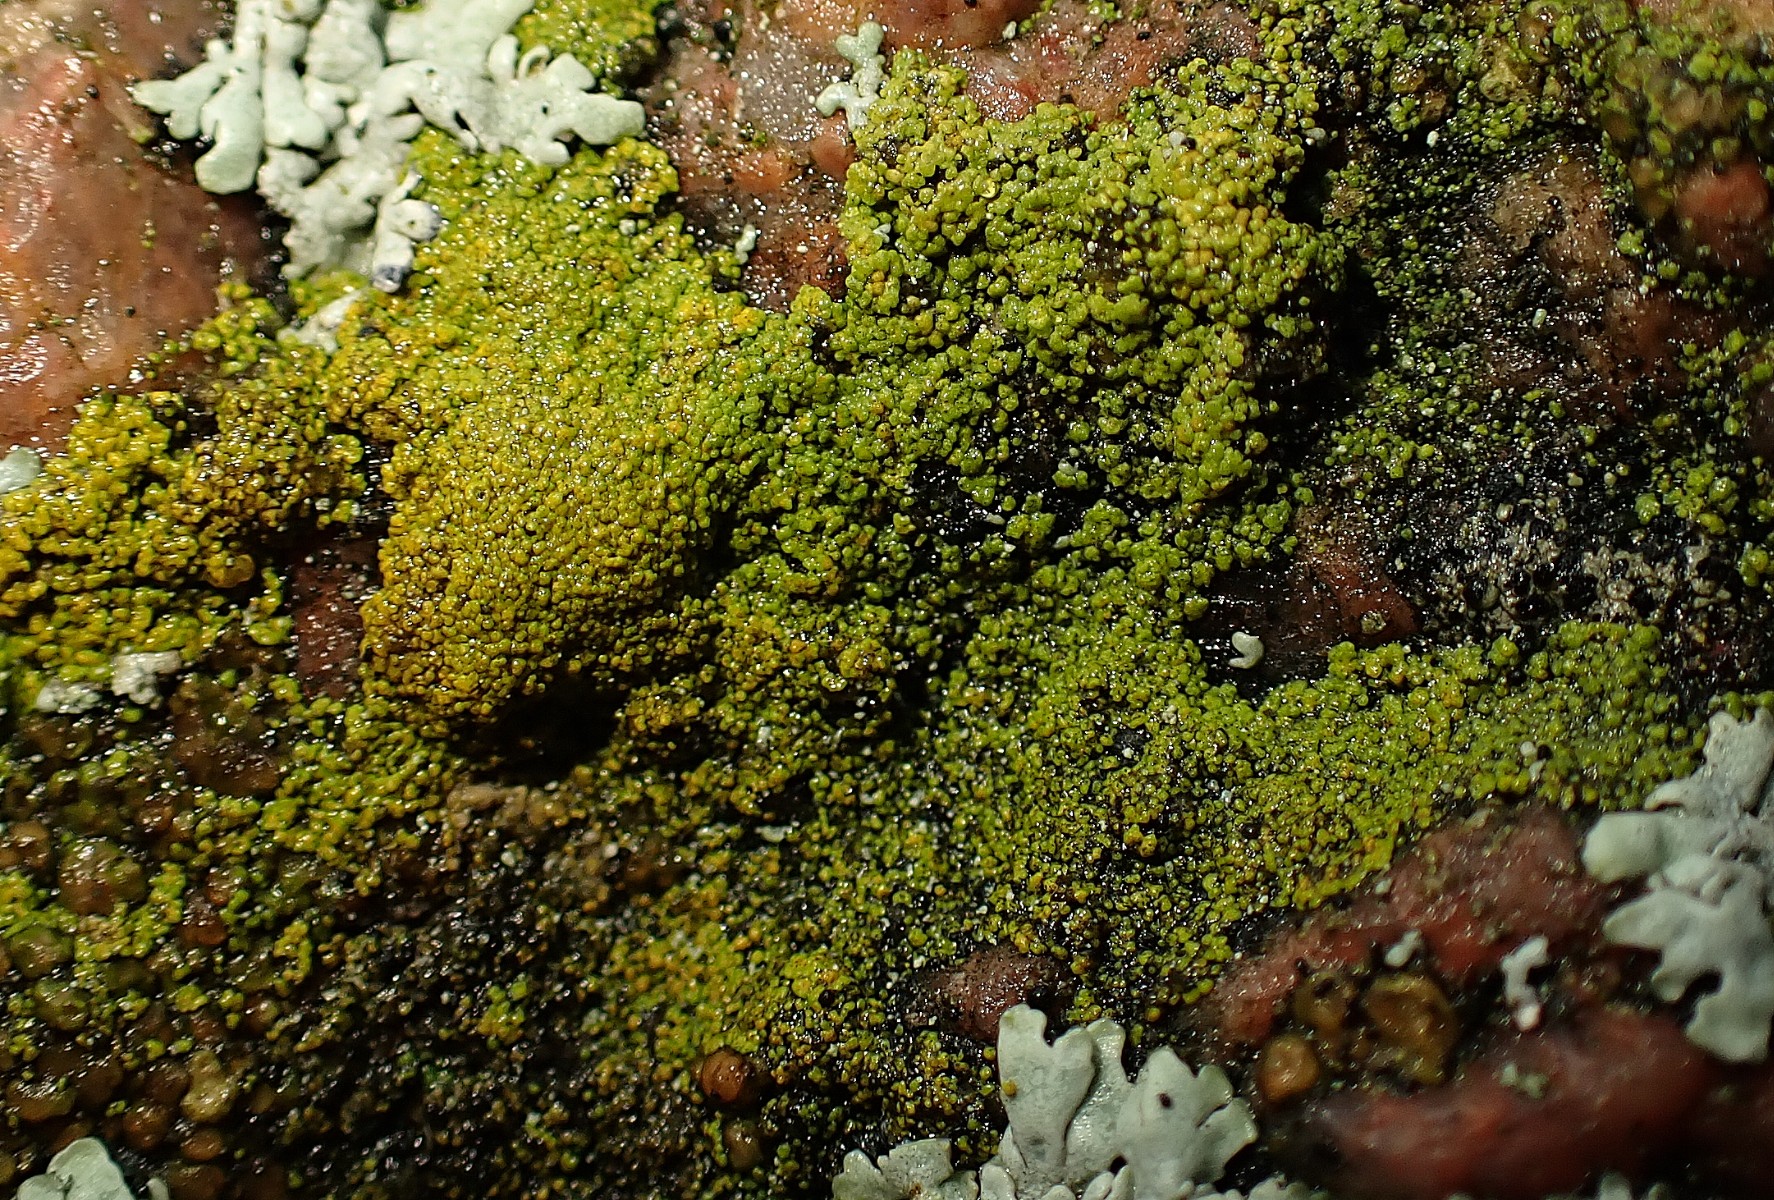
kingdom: Fungi
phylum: Ascomycota
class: Candelariomycetes
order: Candelariales
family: Candelariaceae
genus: Candelariella
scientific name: Candelariella vitellina
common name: almindelig æggeblommelav
